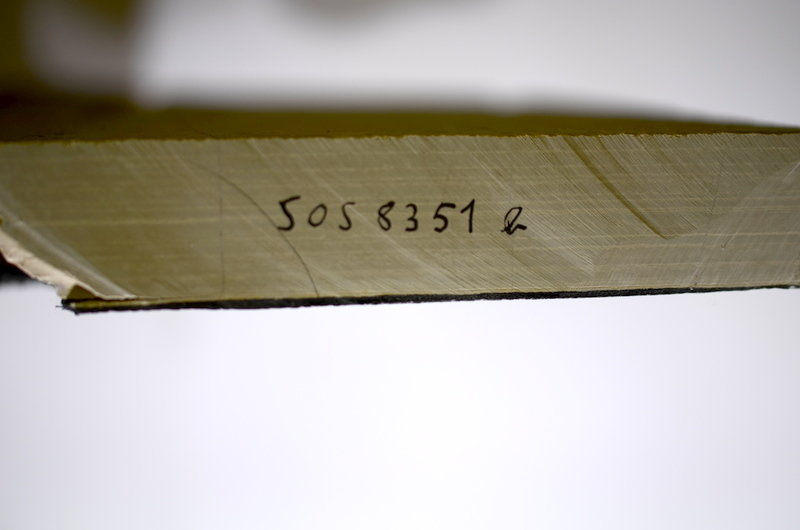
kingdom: Animalia
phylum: Chordata
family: Aspidorhynchidae
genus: Aspidorhynchus
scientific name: Aspidorhynchus acutirostris
